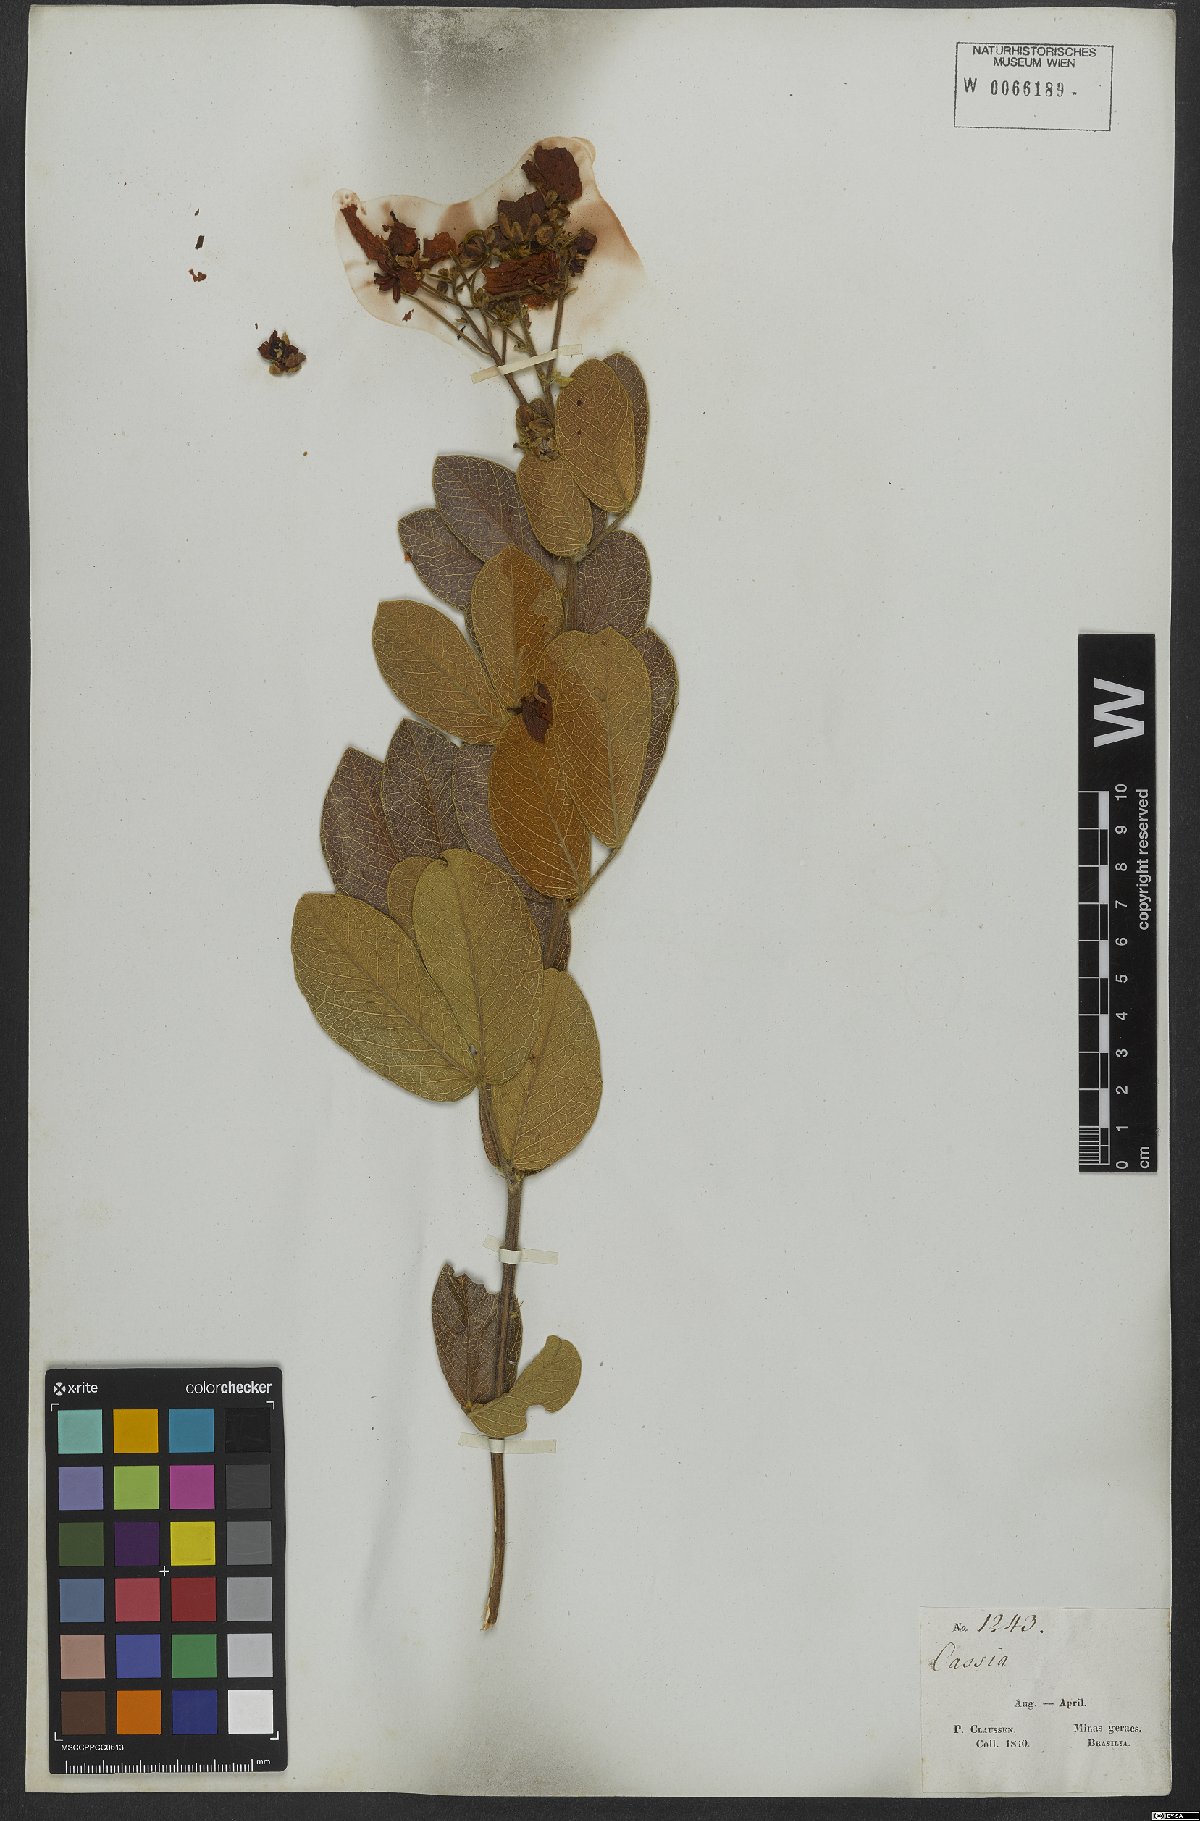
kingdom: Plantae
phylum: Tracheophyta
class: Magnoliopsida
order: Fabales
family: Fabaceae
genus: Senna
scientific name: Senna rugosa
